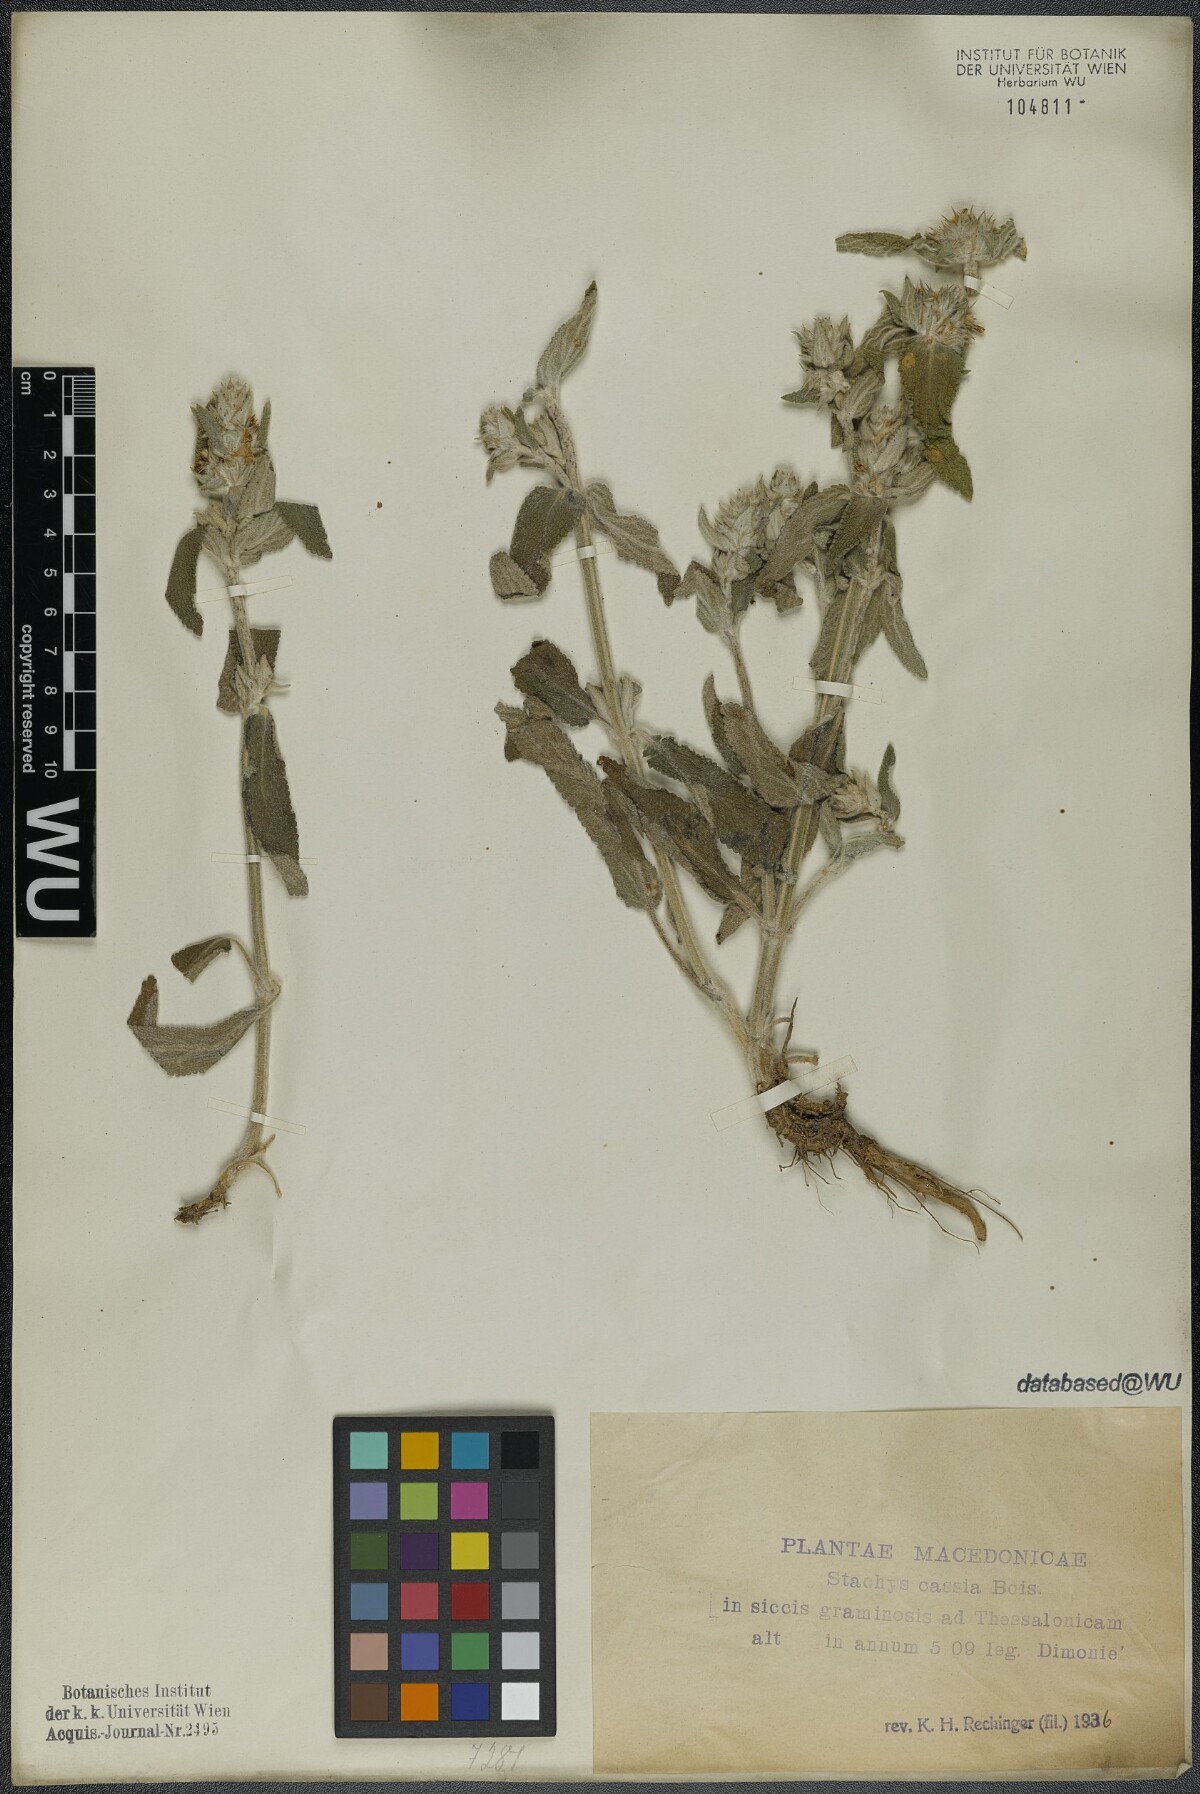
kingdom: Plantae
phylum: Tracheophyta
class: Magnoliopsida
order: Lamiales
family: Lamiaceae
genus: Stachys
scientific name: Stachys cretica
